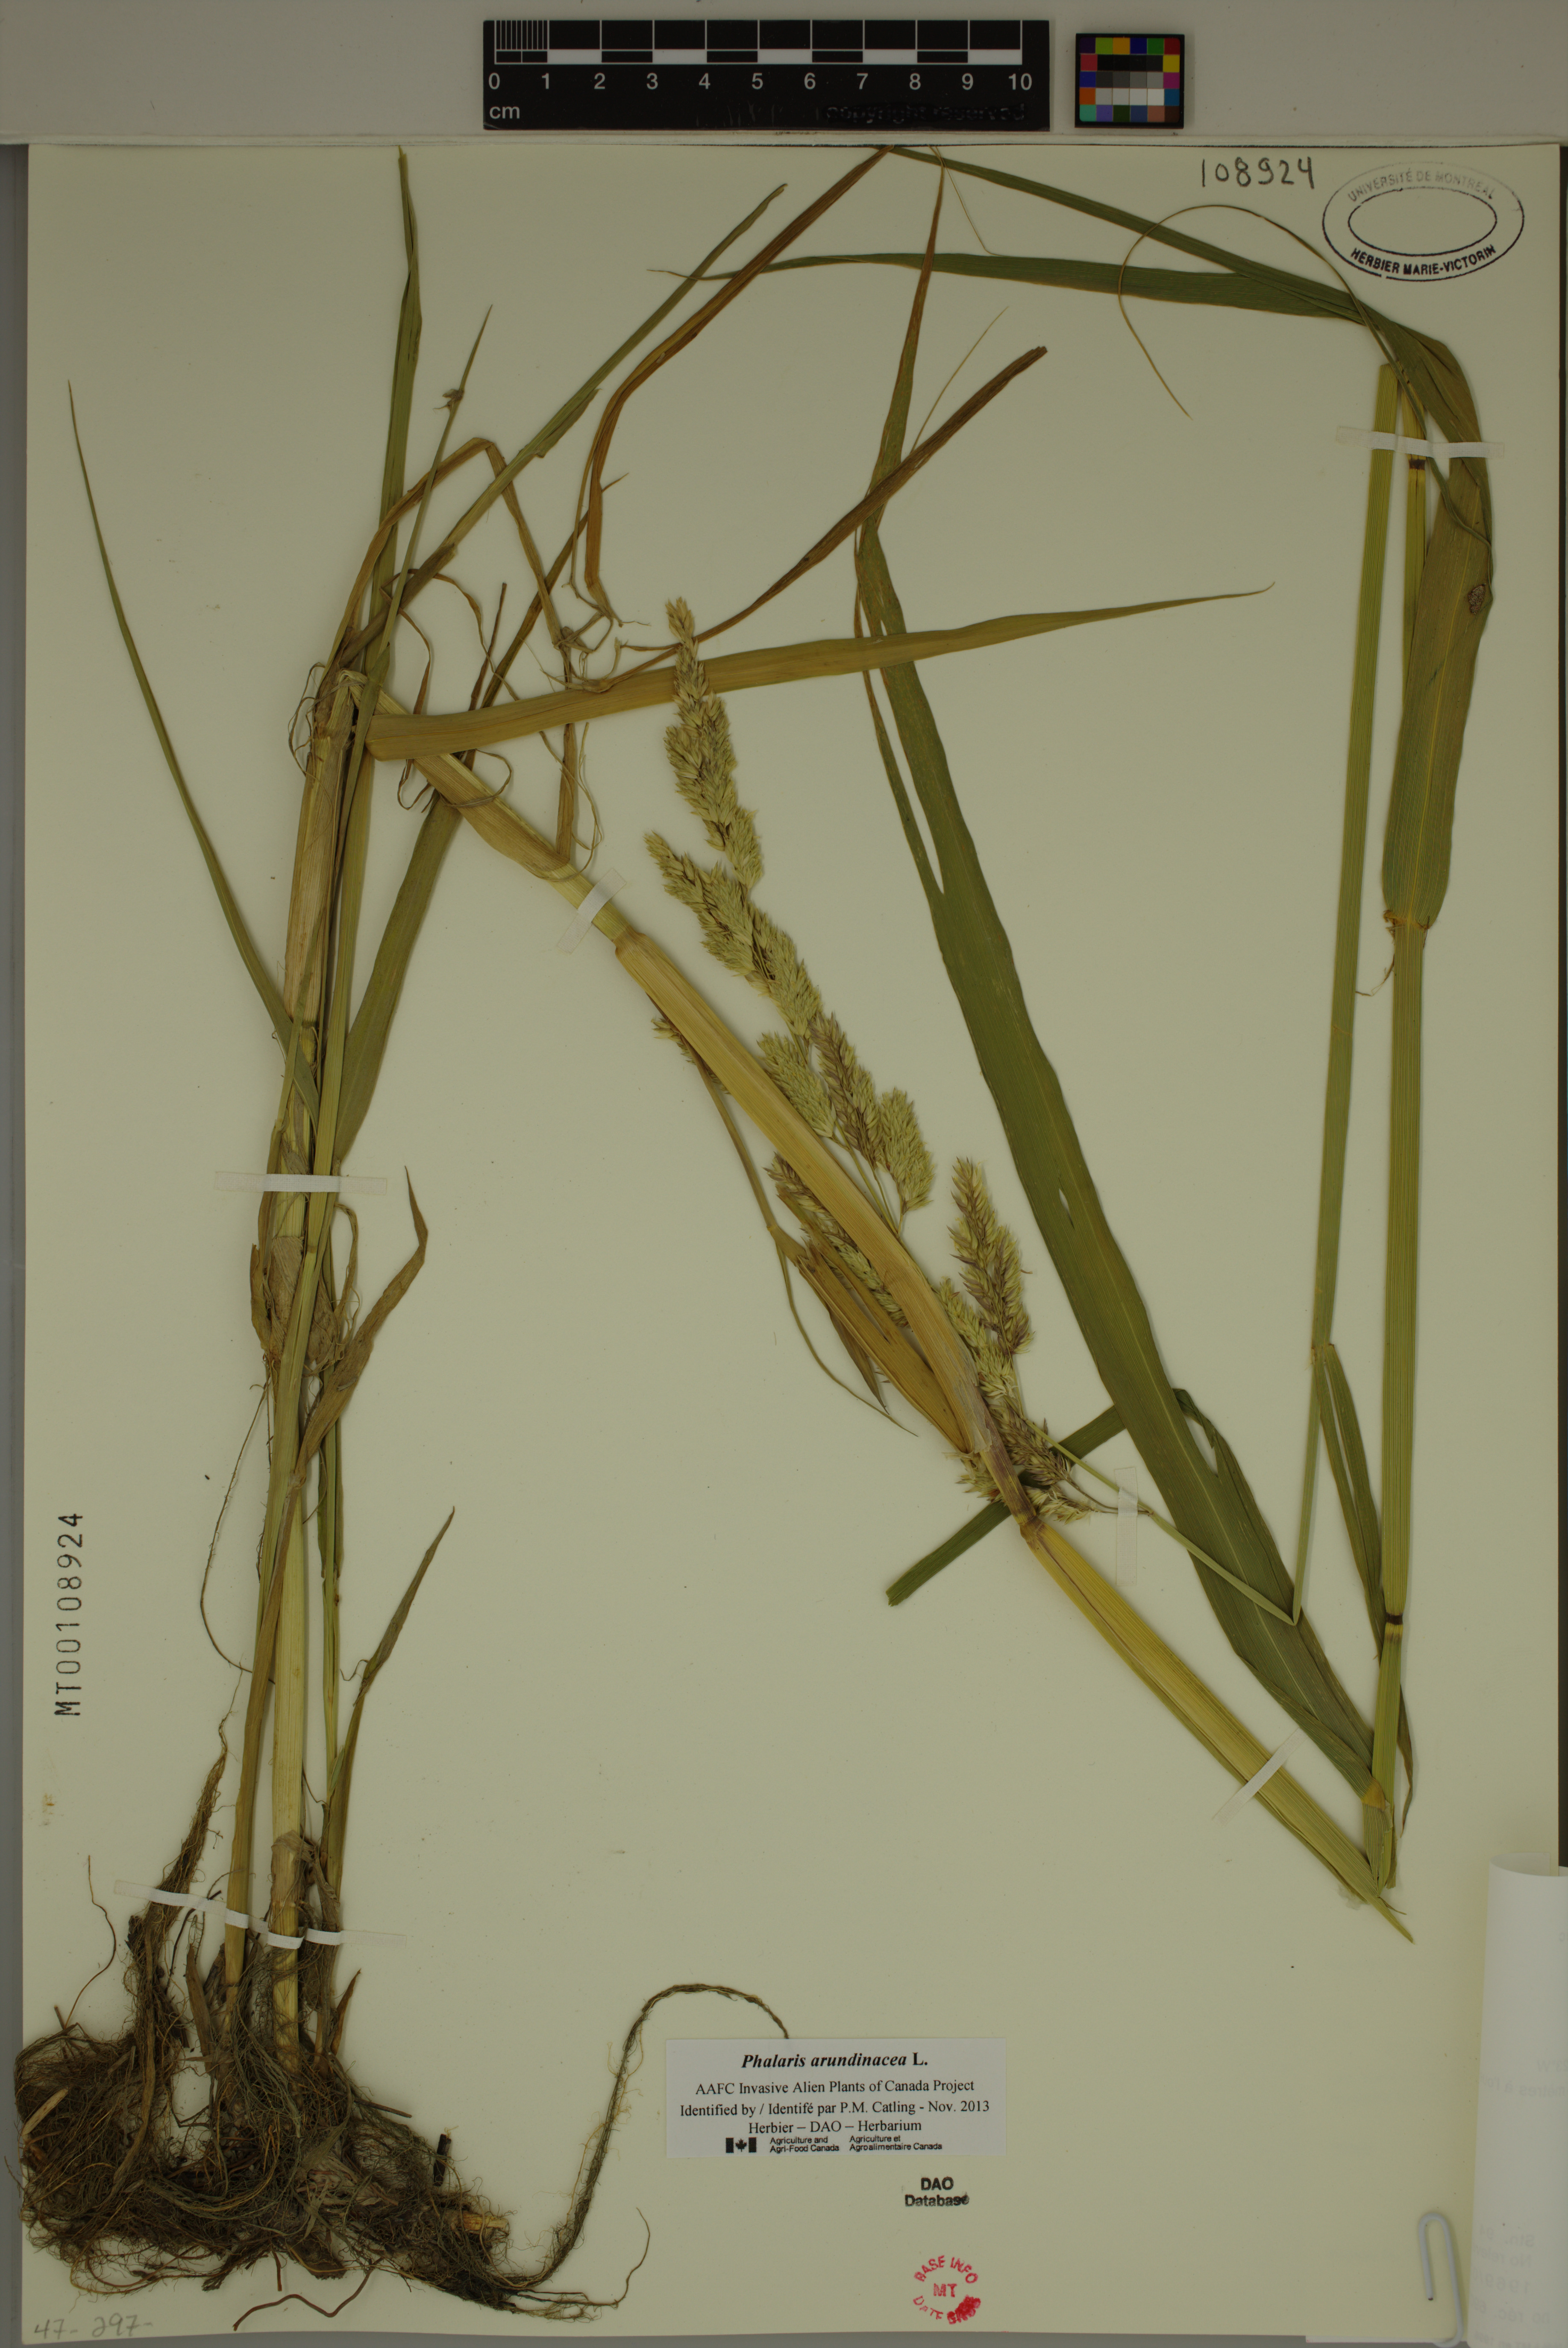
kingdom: Plantae
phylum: Tracheophyta
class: Liliopsida
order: Poales
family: Poaceae
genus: Phalaris
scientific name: Phalaris arundinacea
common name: Reed canary-grass
